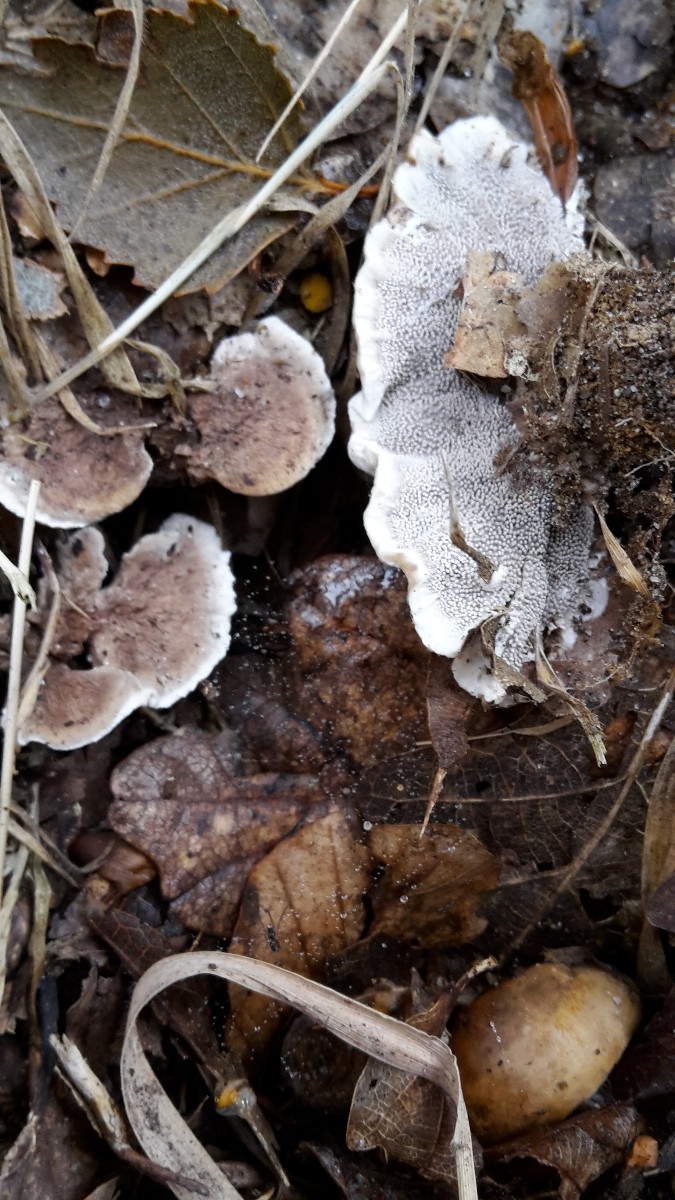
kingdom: Fungi
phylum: Basidiomycota
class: Agaricomycetes
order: Thelephorales
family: Thelephoraceae
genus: Phellodon
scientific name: Phellodon confluens
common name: pjaltet duftpigsvamp
